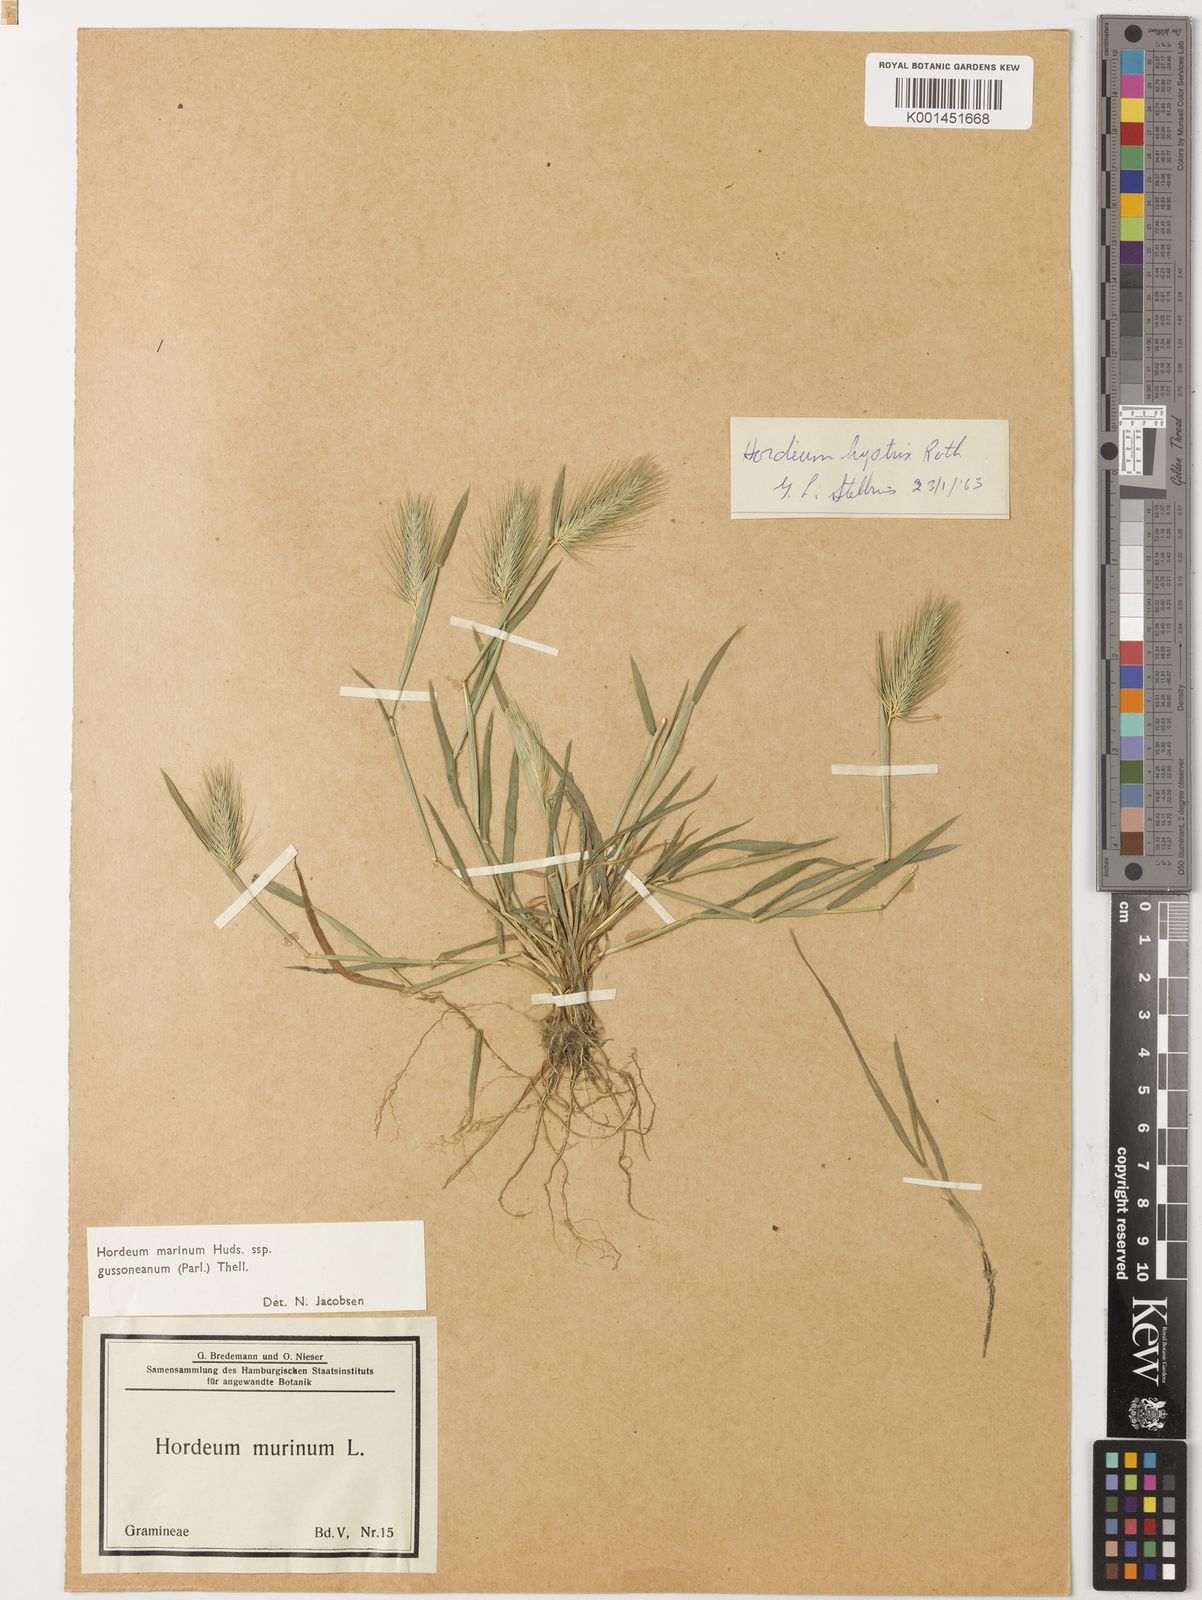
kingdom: Plantae
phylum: Tracheophyta
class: Liliopsida
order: Poales
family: Poaceae
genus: Hordeum
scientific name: Hordeum marinum
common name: Sea barley
